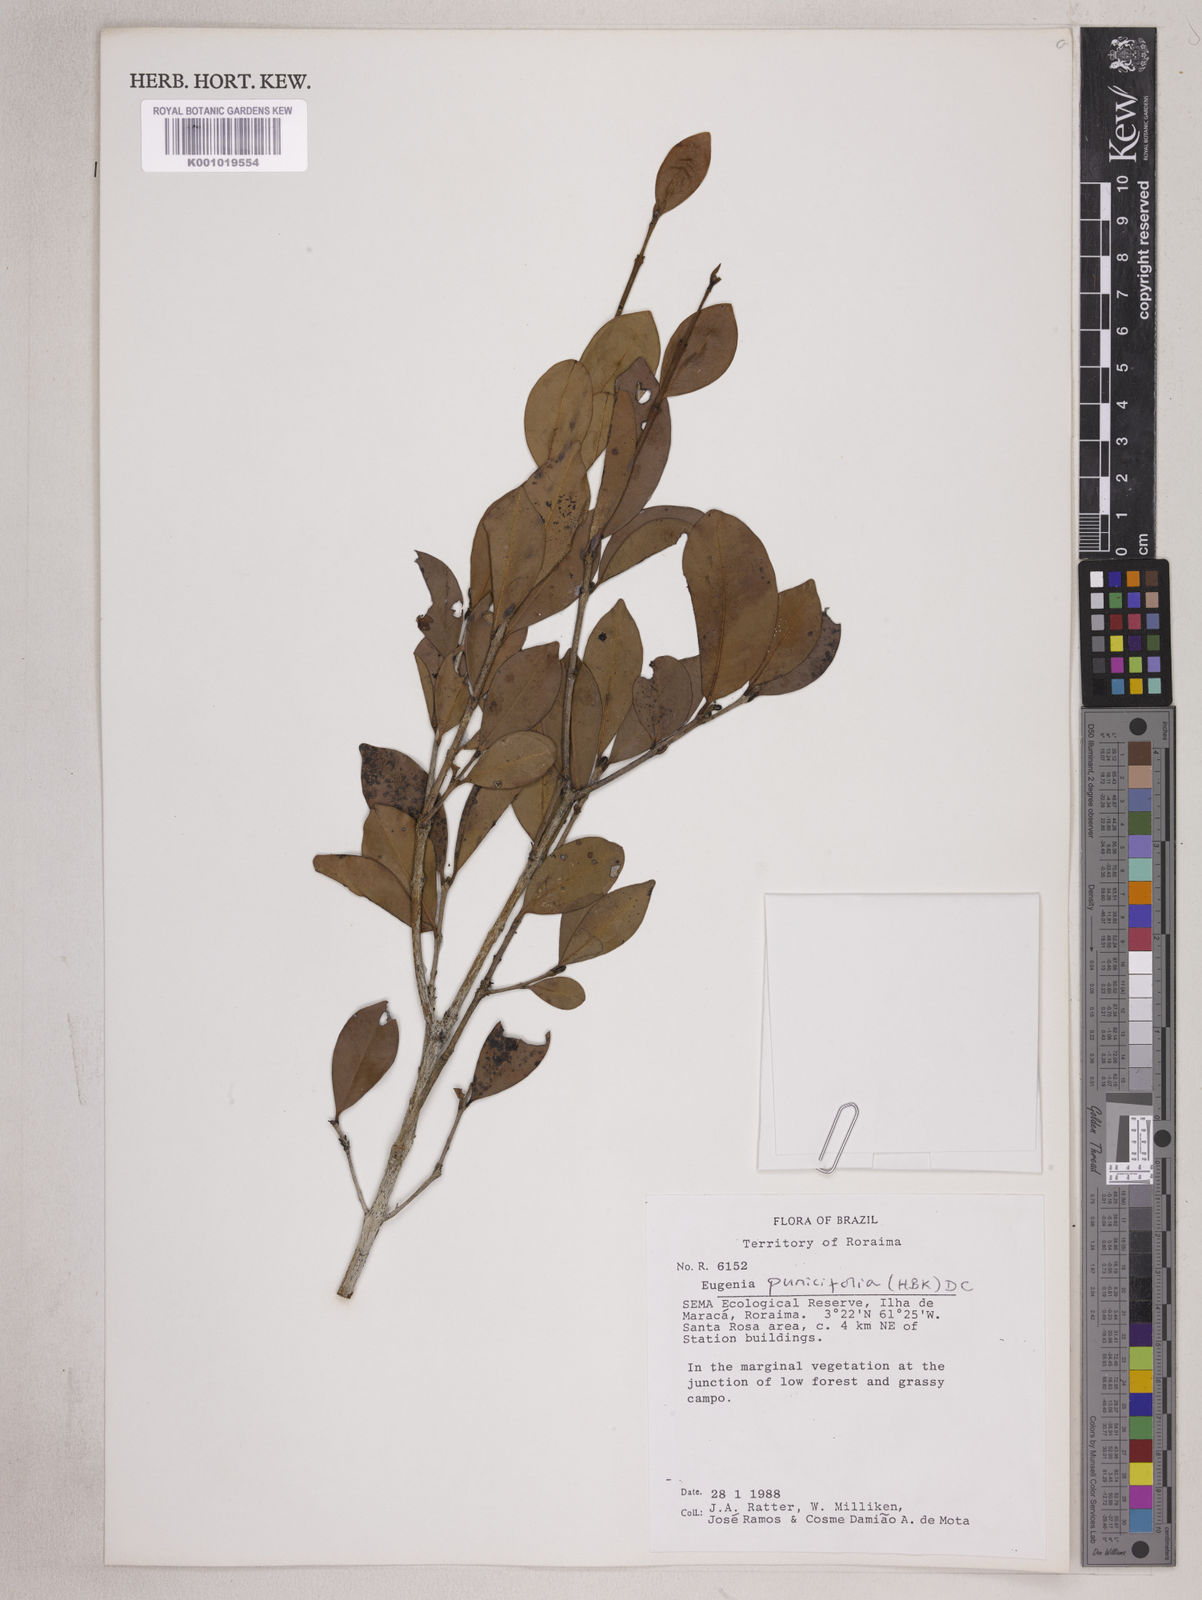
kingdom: Plantae
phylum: Tracheophyta
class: Magnoliopsida
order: Myrtales
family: Myrtaceae
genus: Eugenia
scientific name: Eugenia punicifolia
